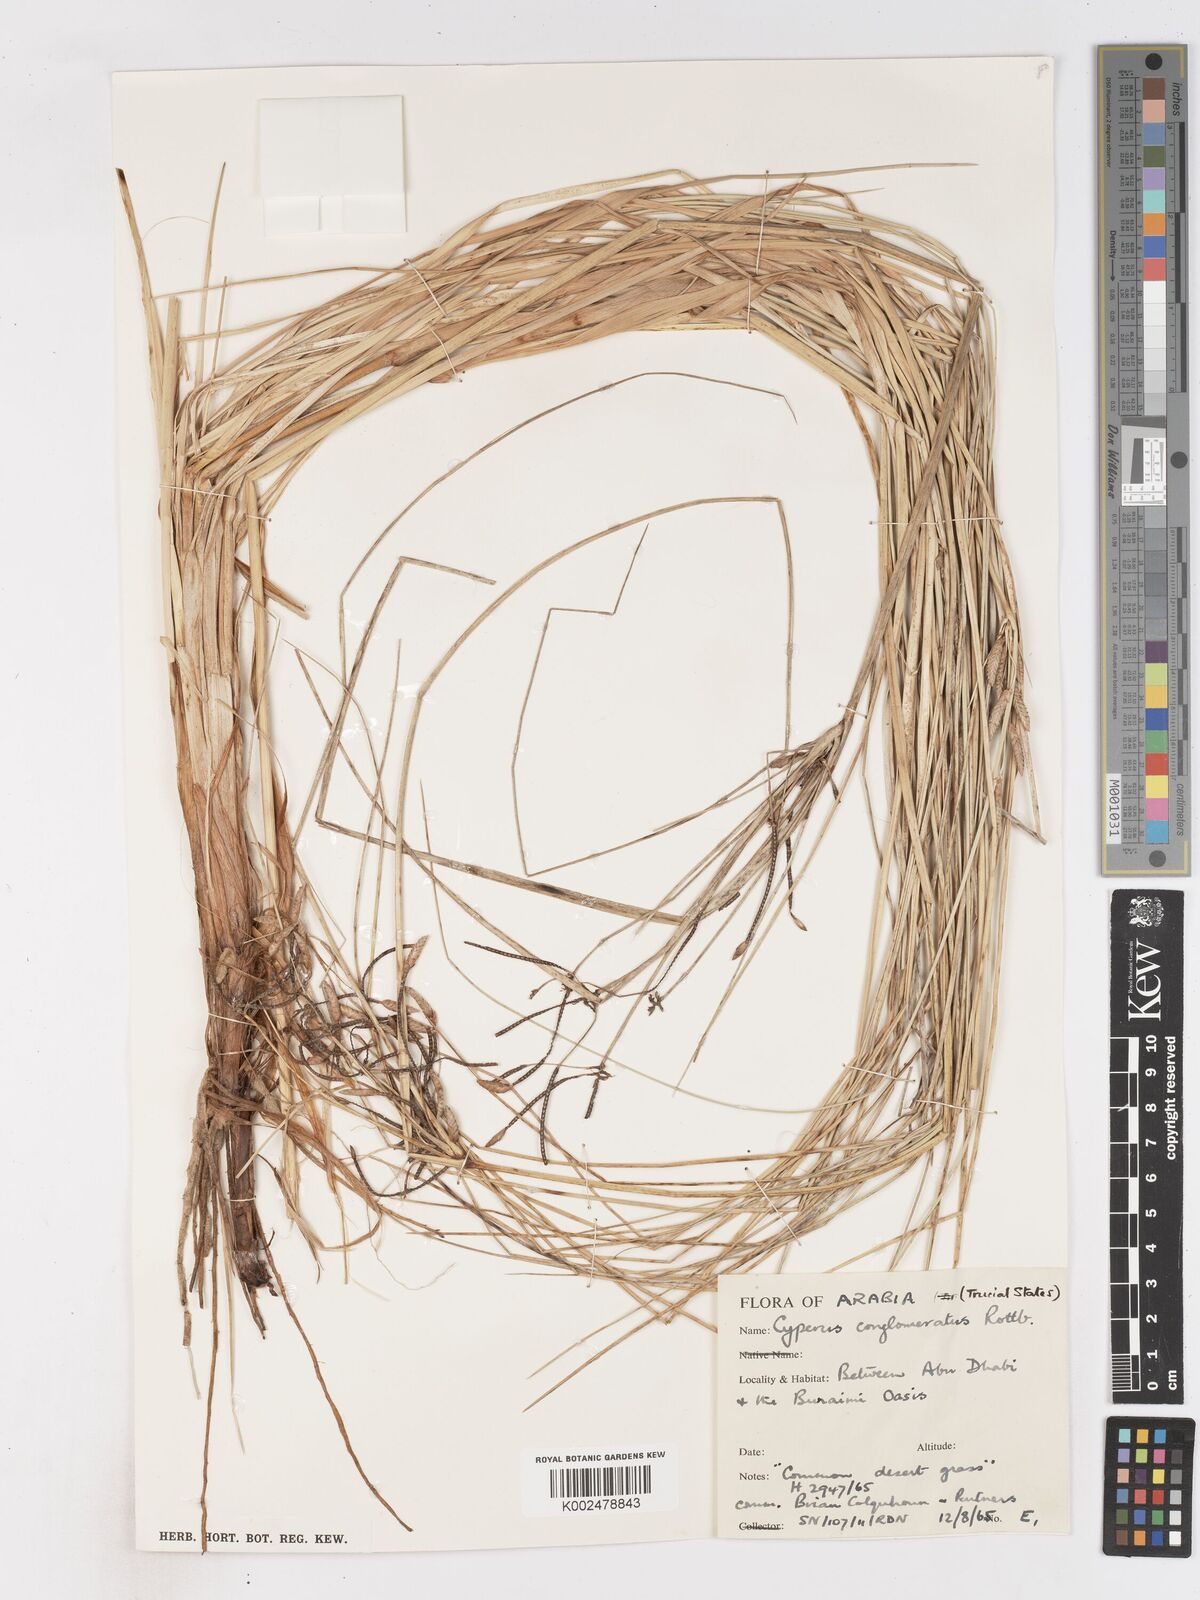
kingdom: Plantae
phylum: Tracheophyta
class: Liliopsida
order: Poales
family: Cyperaceae
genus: Cyperus
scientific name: Cyperus
